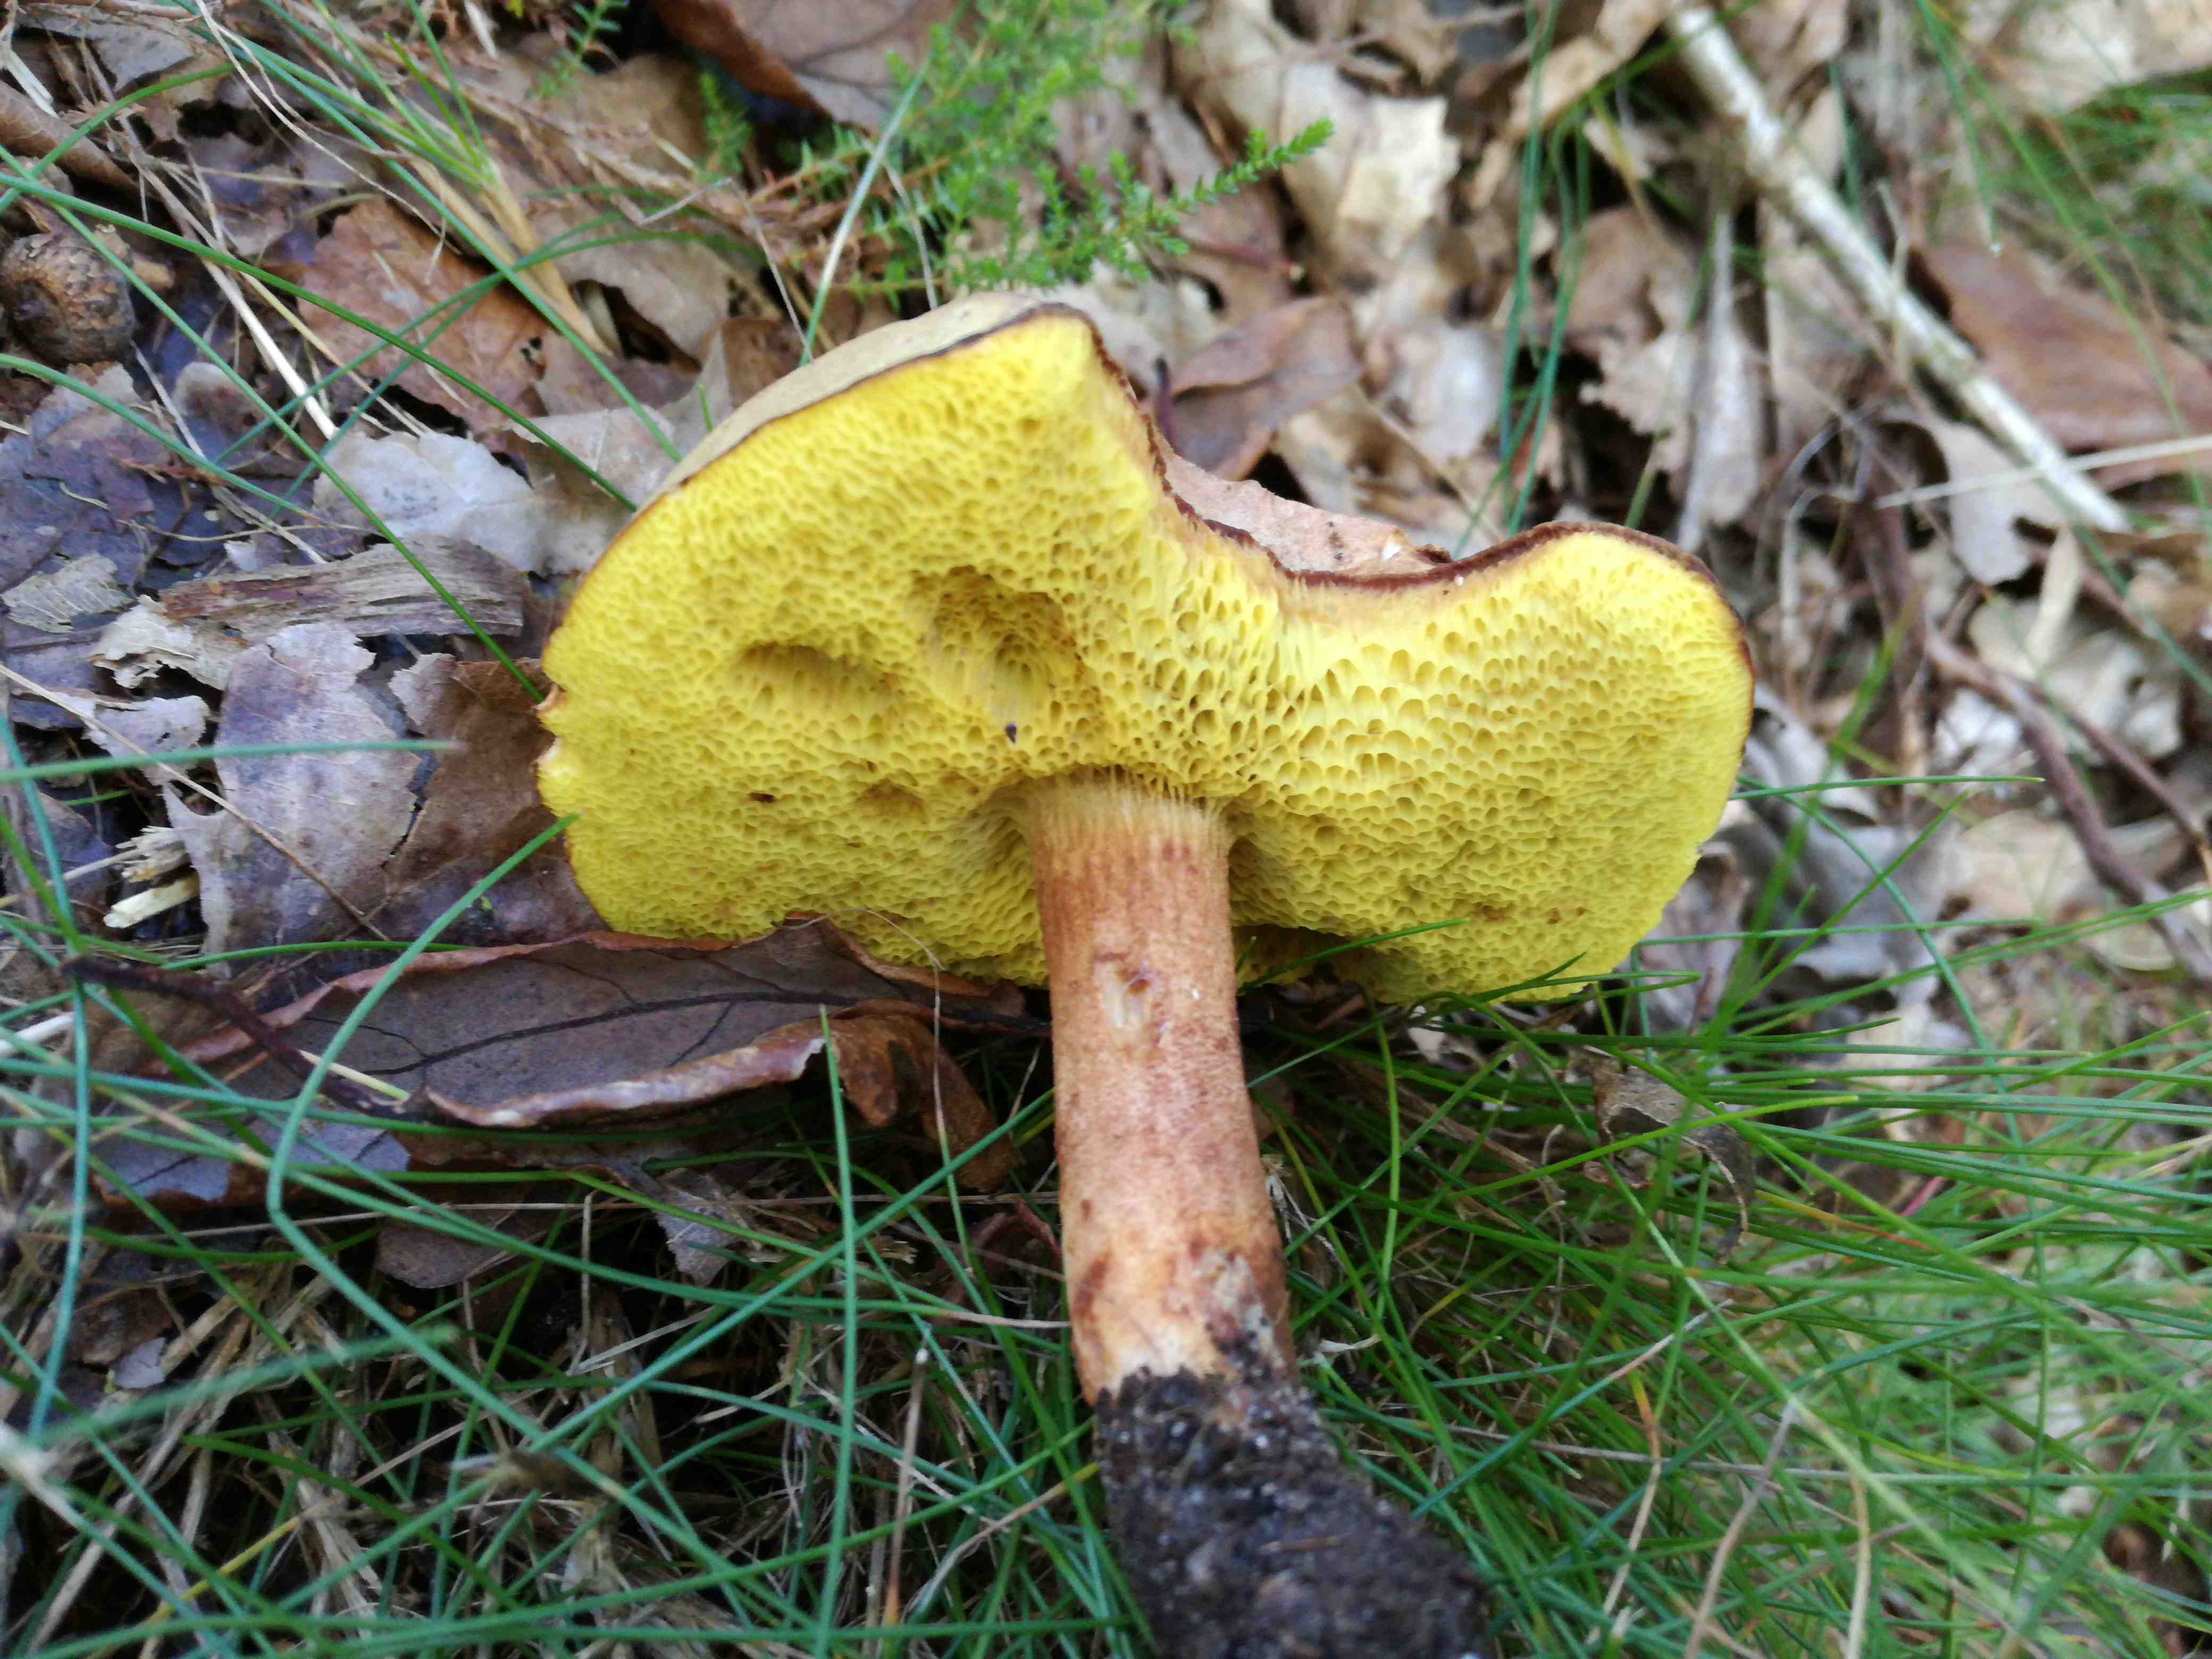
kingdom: Fungi
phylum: Basidiomycota
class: Agaricomycetes
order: Boletales
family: Boletaceae
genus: Xerocomus
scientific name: Xerocomus ferrugineus
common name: vaskeskinds-rørhat
